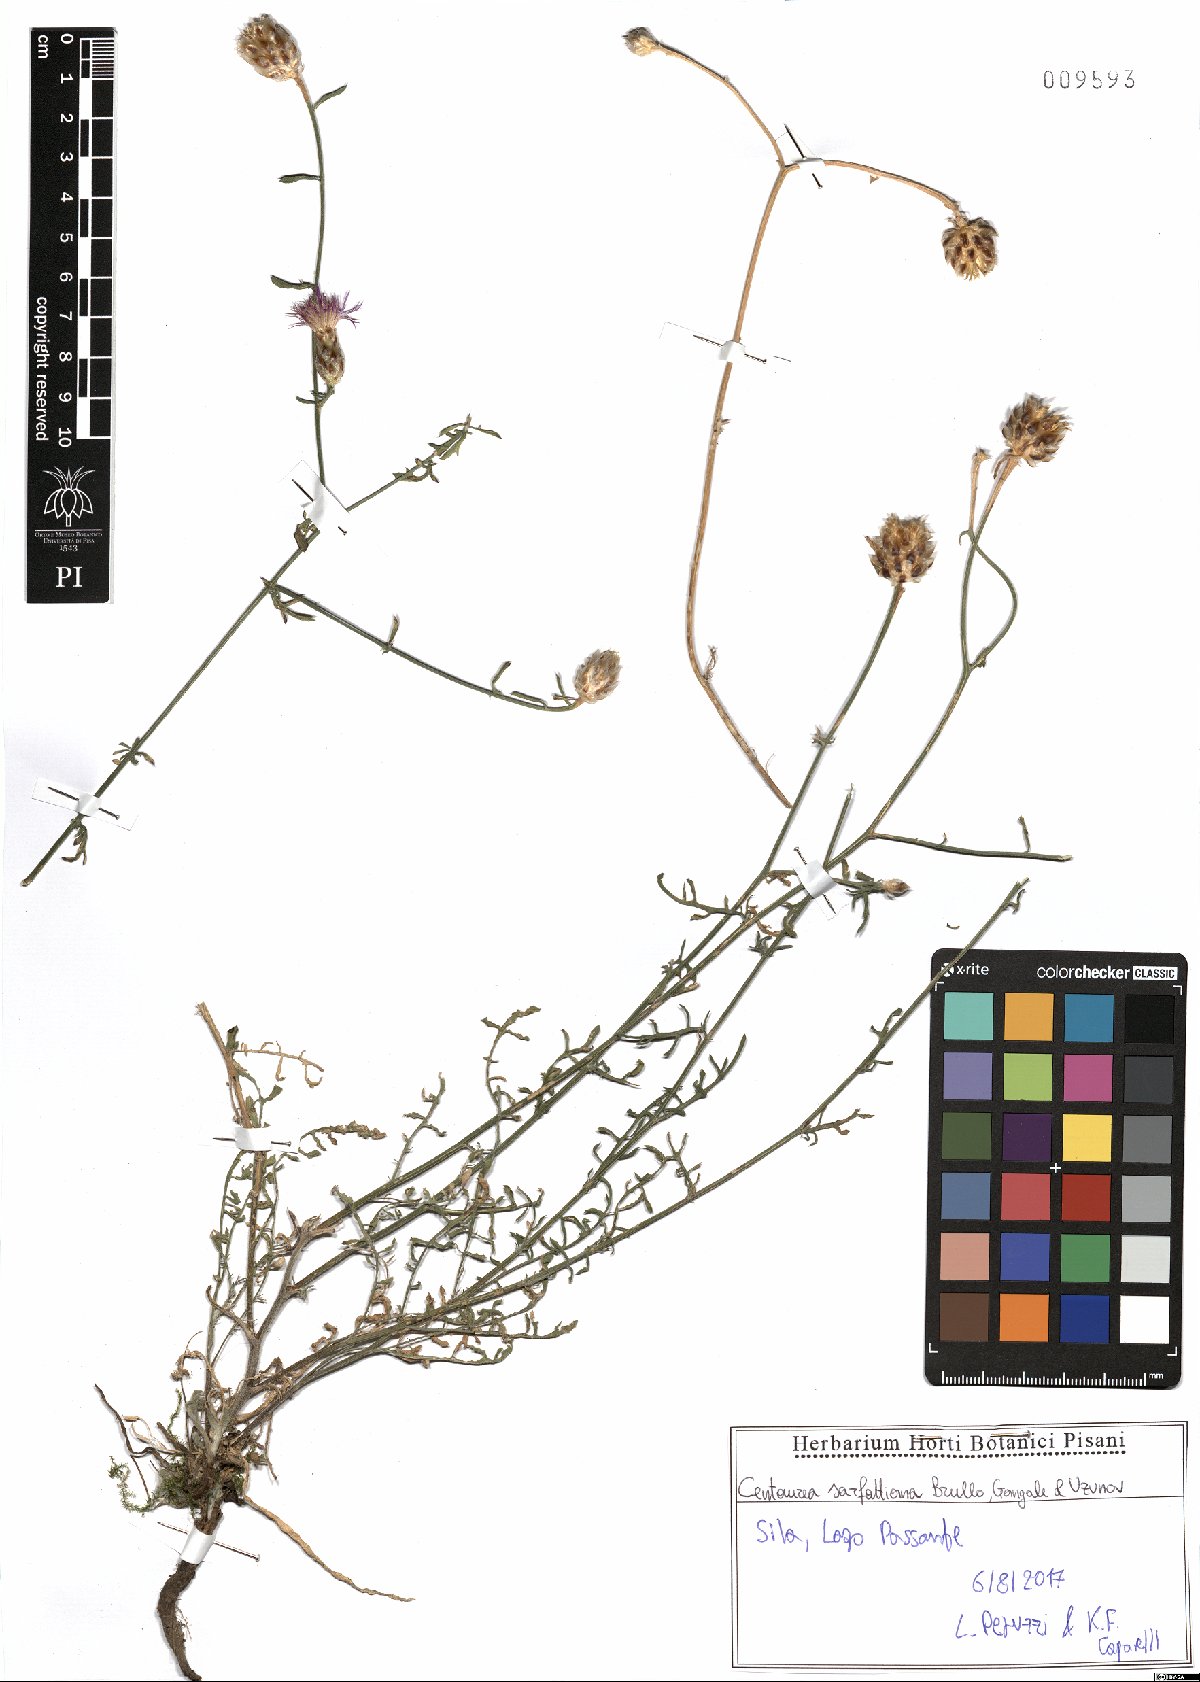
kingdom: Plantae
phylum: Tracheophyta
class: Magnoliopsida
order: Asterales
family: Asteraceae
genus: Centaurea
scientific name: Centaurea sarfattiana
